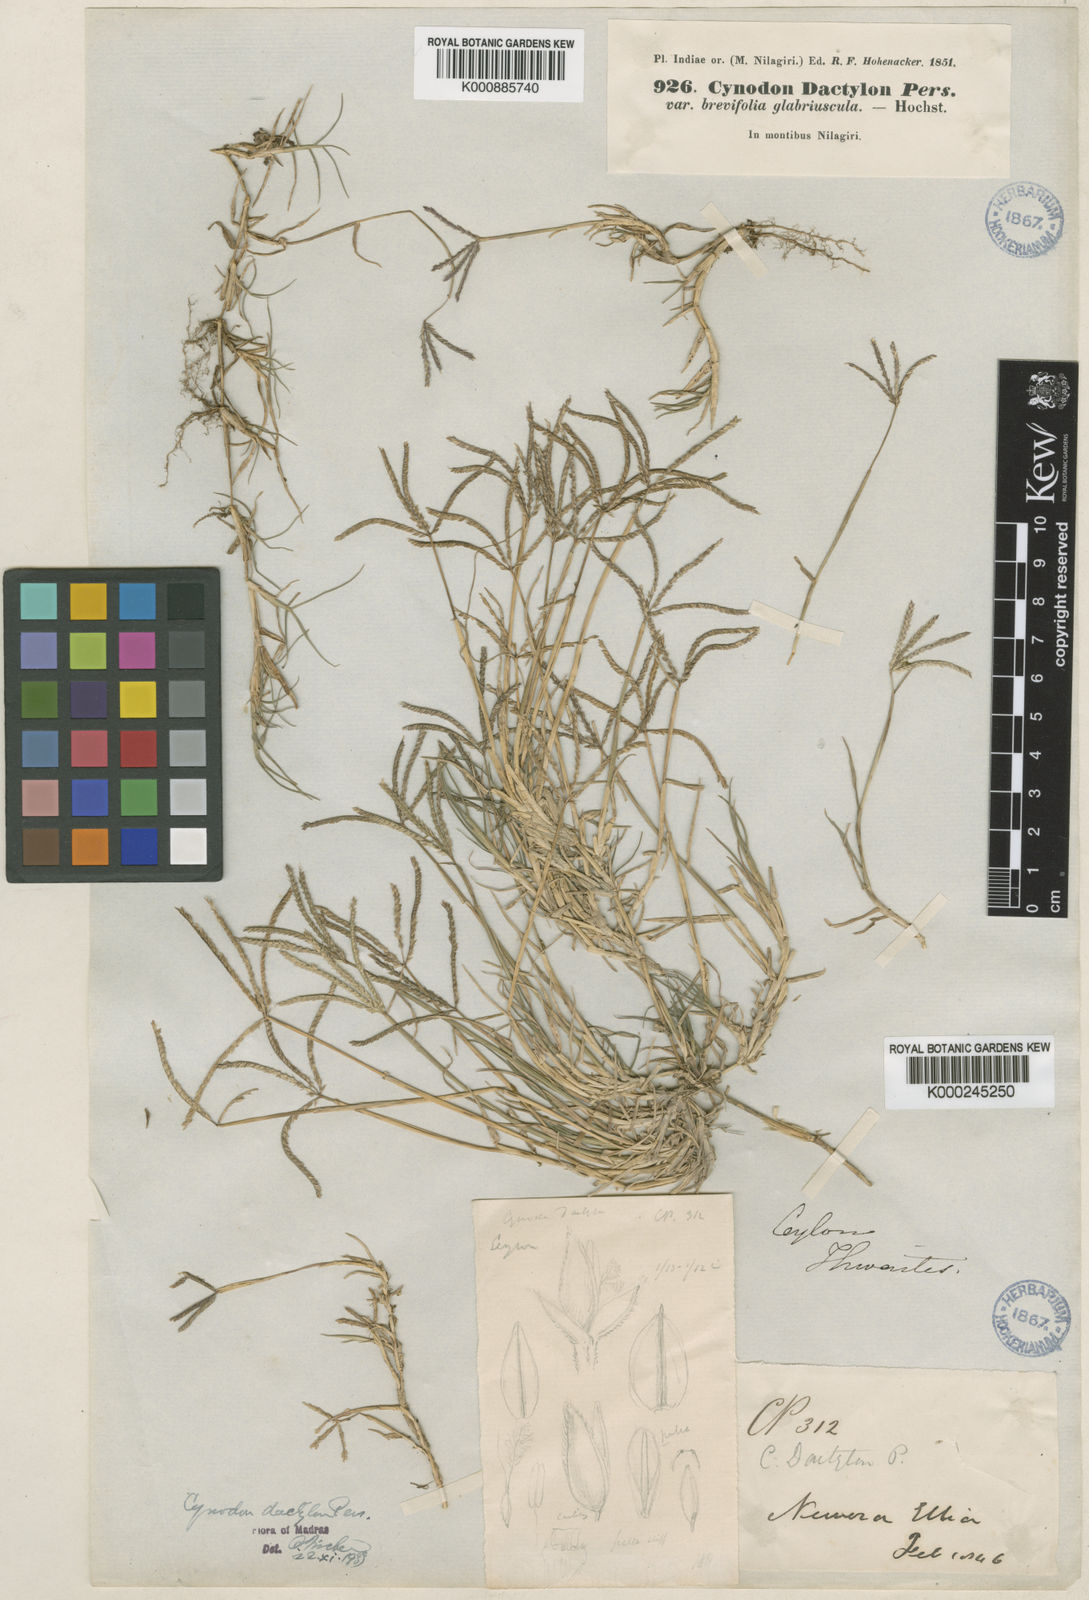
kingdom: Plantae
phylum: Tracheophyta
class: Liliopsida
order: Poales
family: Poaceae
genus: Cynodon
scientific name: Cynodon dactylon
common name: Bermuda grass
